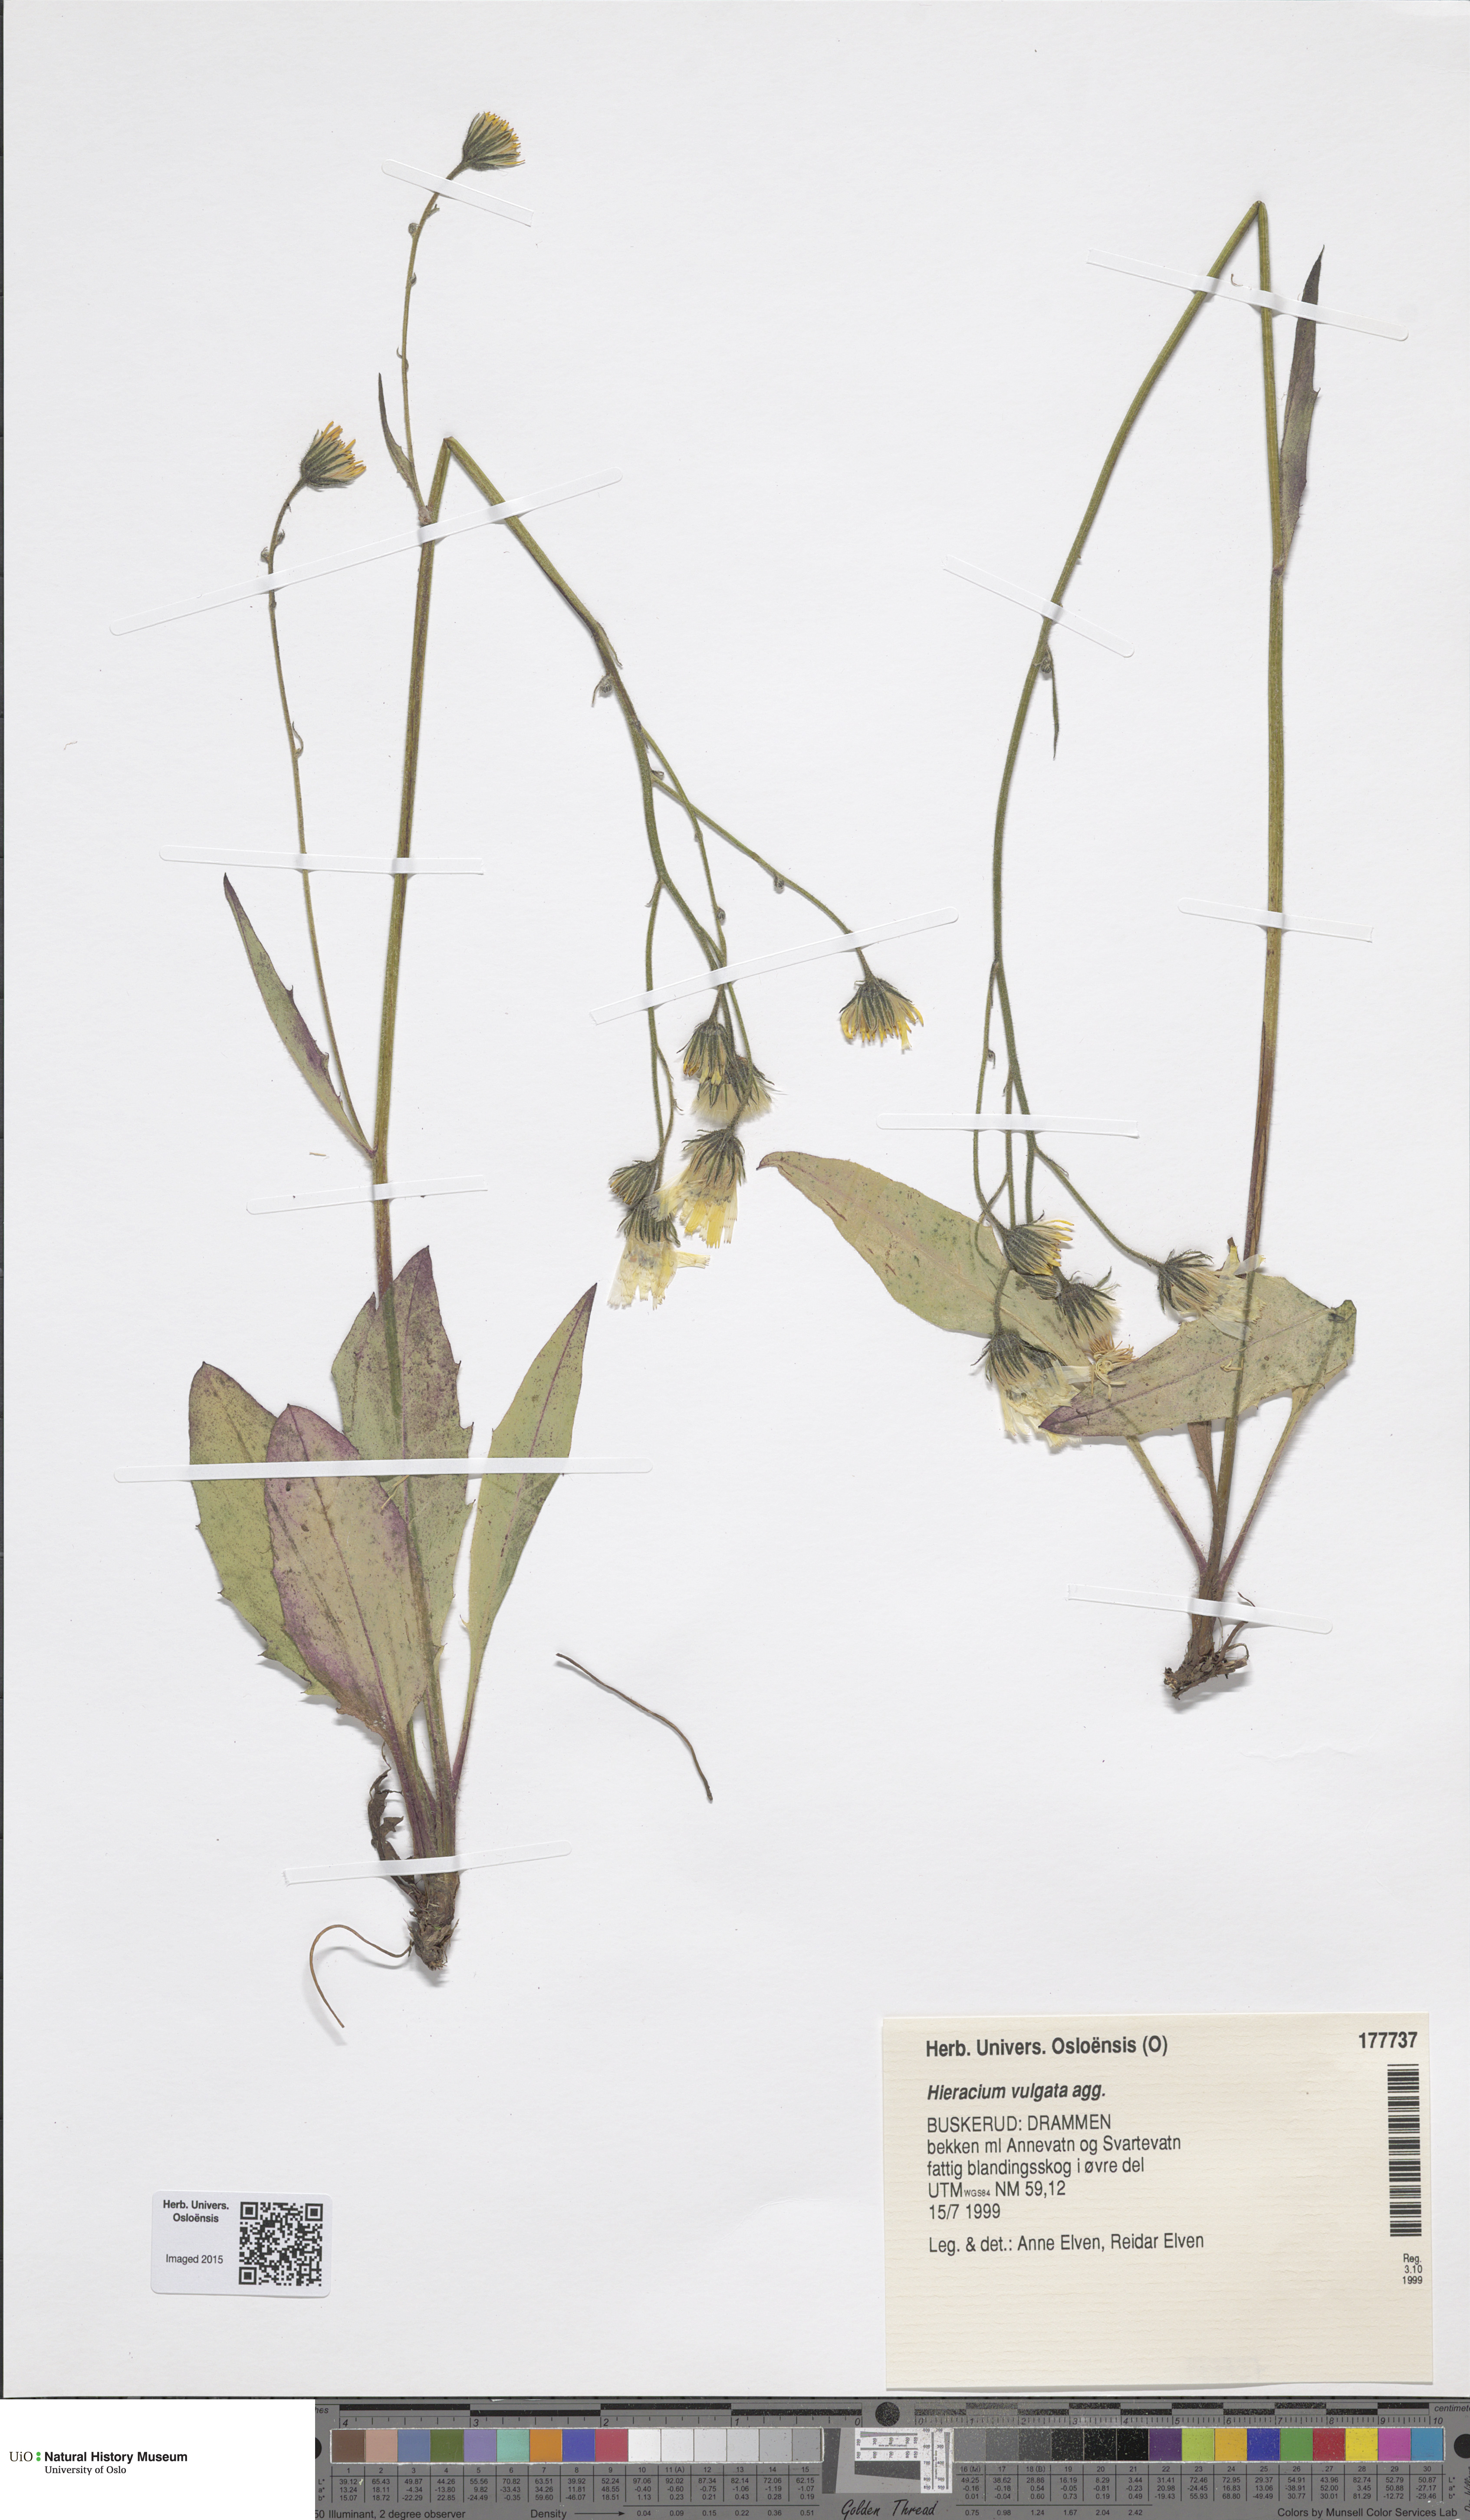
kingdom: Plantae
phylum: Tracheophyta
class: Magnoliopsida
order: Asterales
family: Asteraceae
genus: Hieracium
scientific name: Hieracium vulgatum
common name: Common hawkweed
